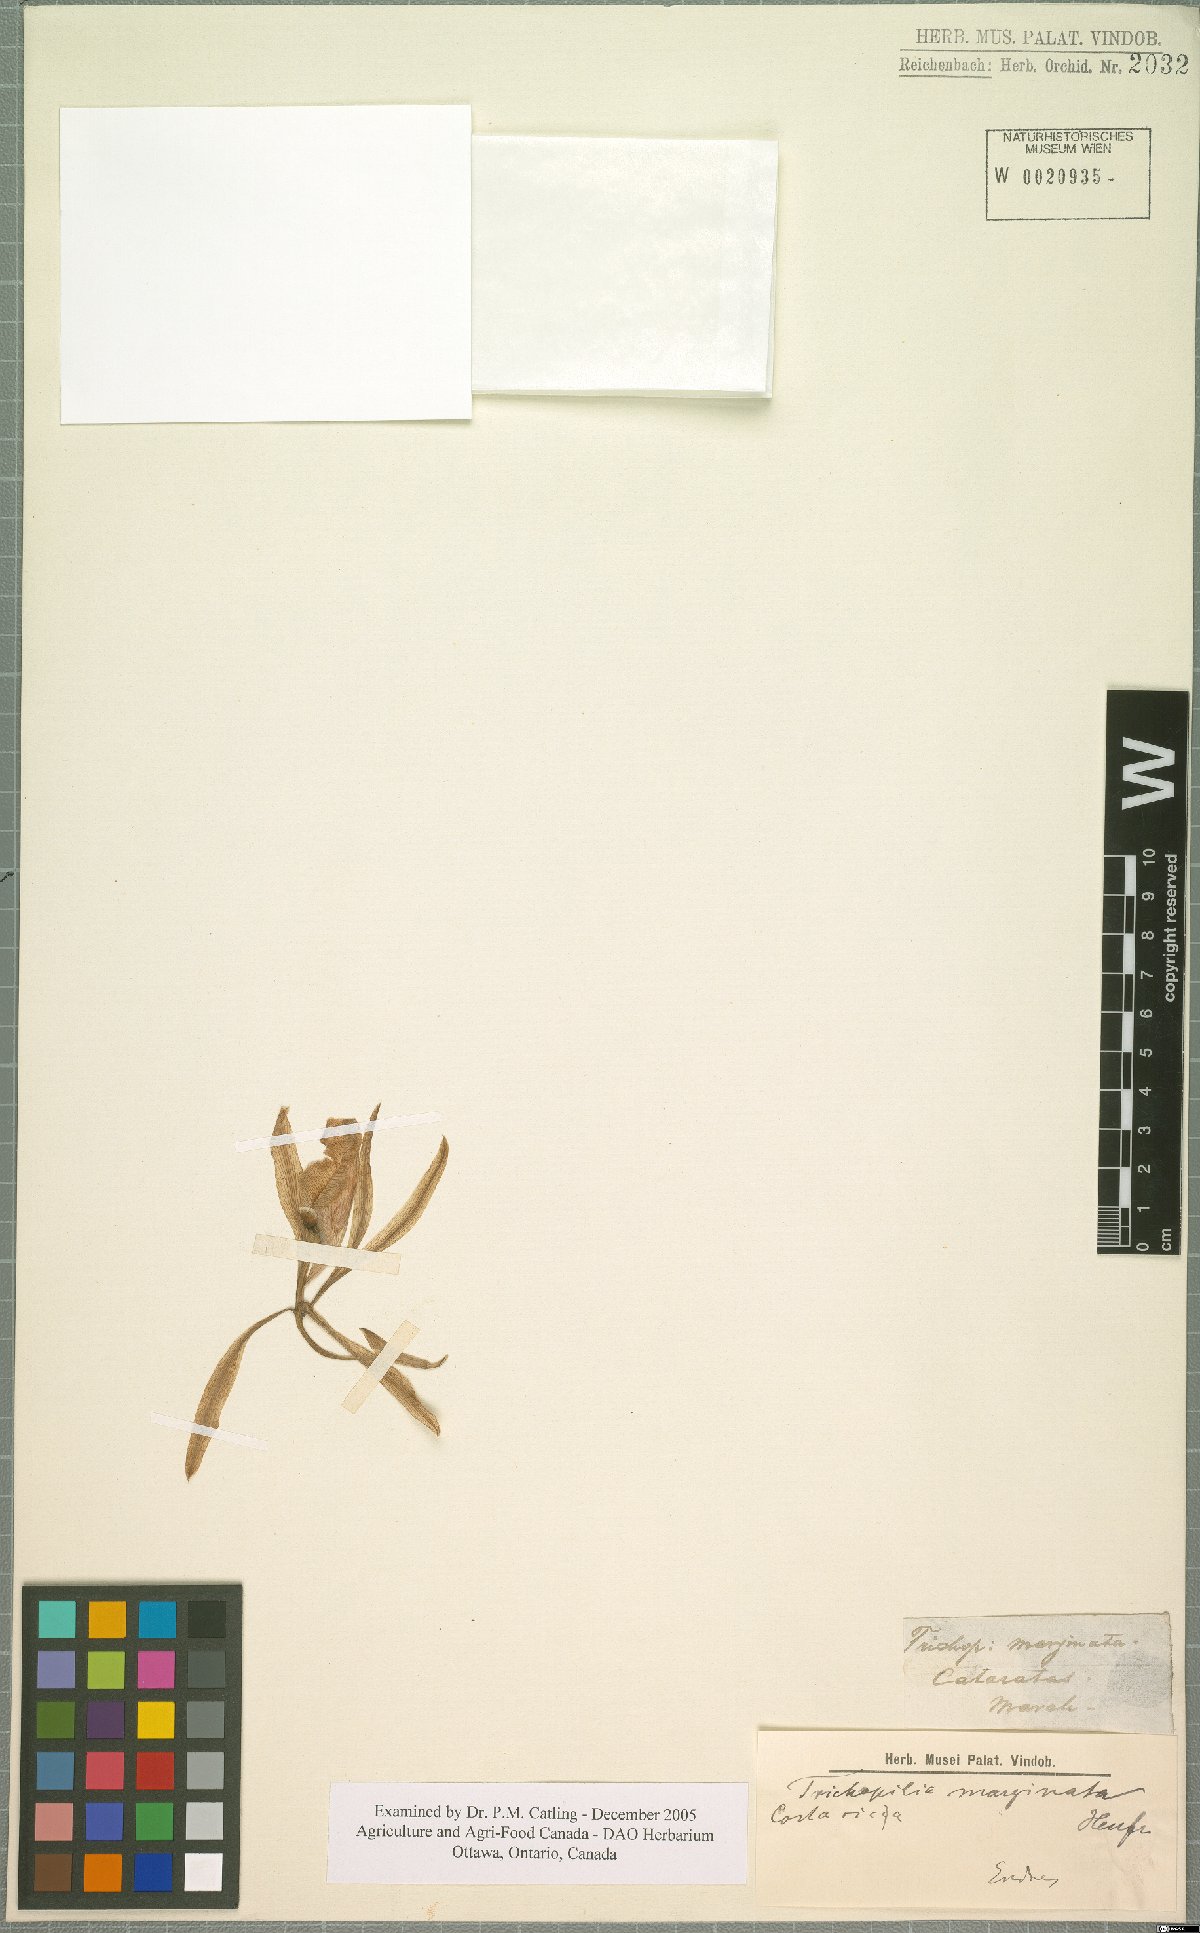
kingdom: Plantae
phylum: Tracheophyta
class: Liliopsida
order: Asparagales
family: Orchidaceae
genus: Trichopilia
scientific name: Trichopilia marginata
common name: Rimmed trichopilia
